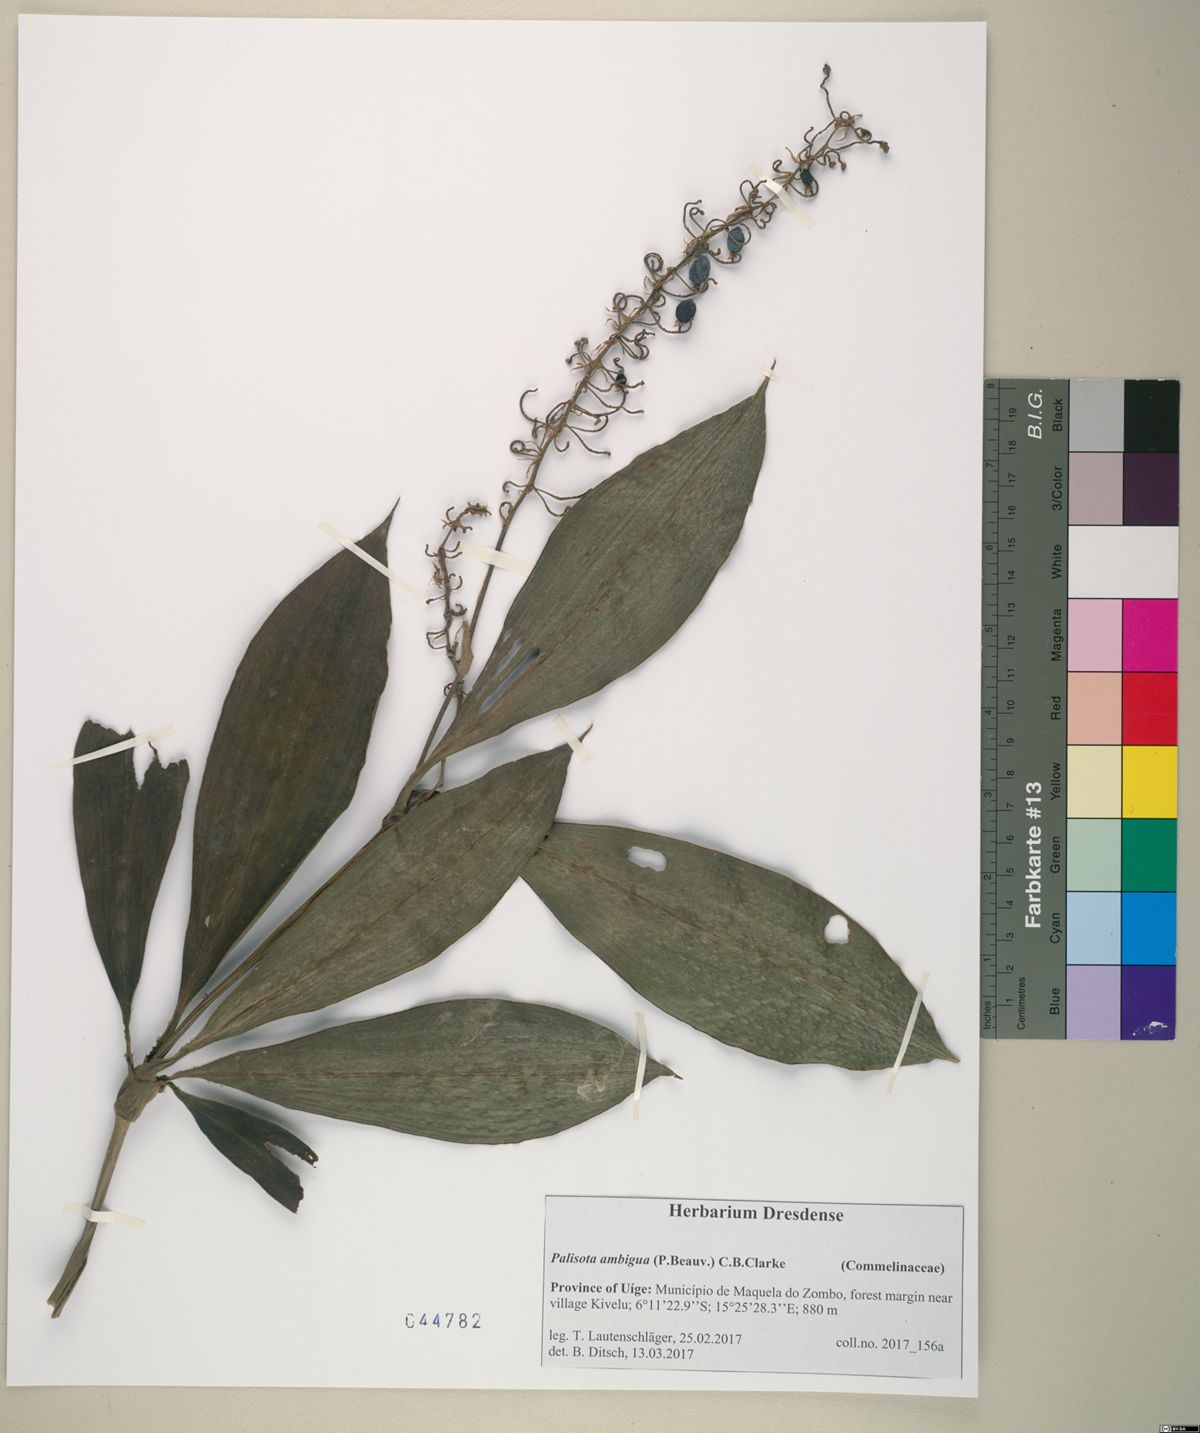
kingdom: Plantae
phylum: Tracheophyta
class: Liliopsida
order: Commelinales
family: Commelinaceae
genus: Palisota
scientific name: Palisota hirsuta
